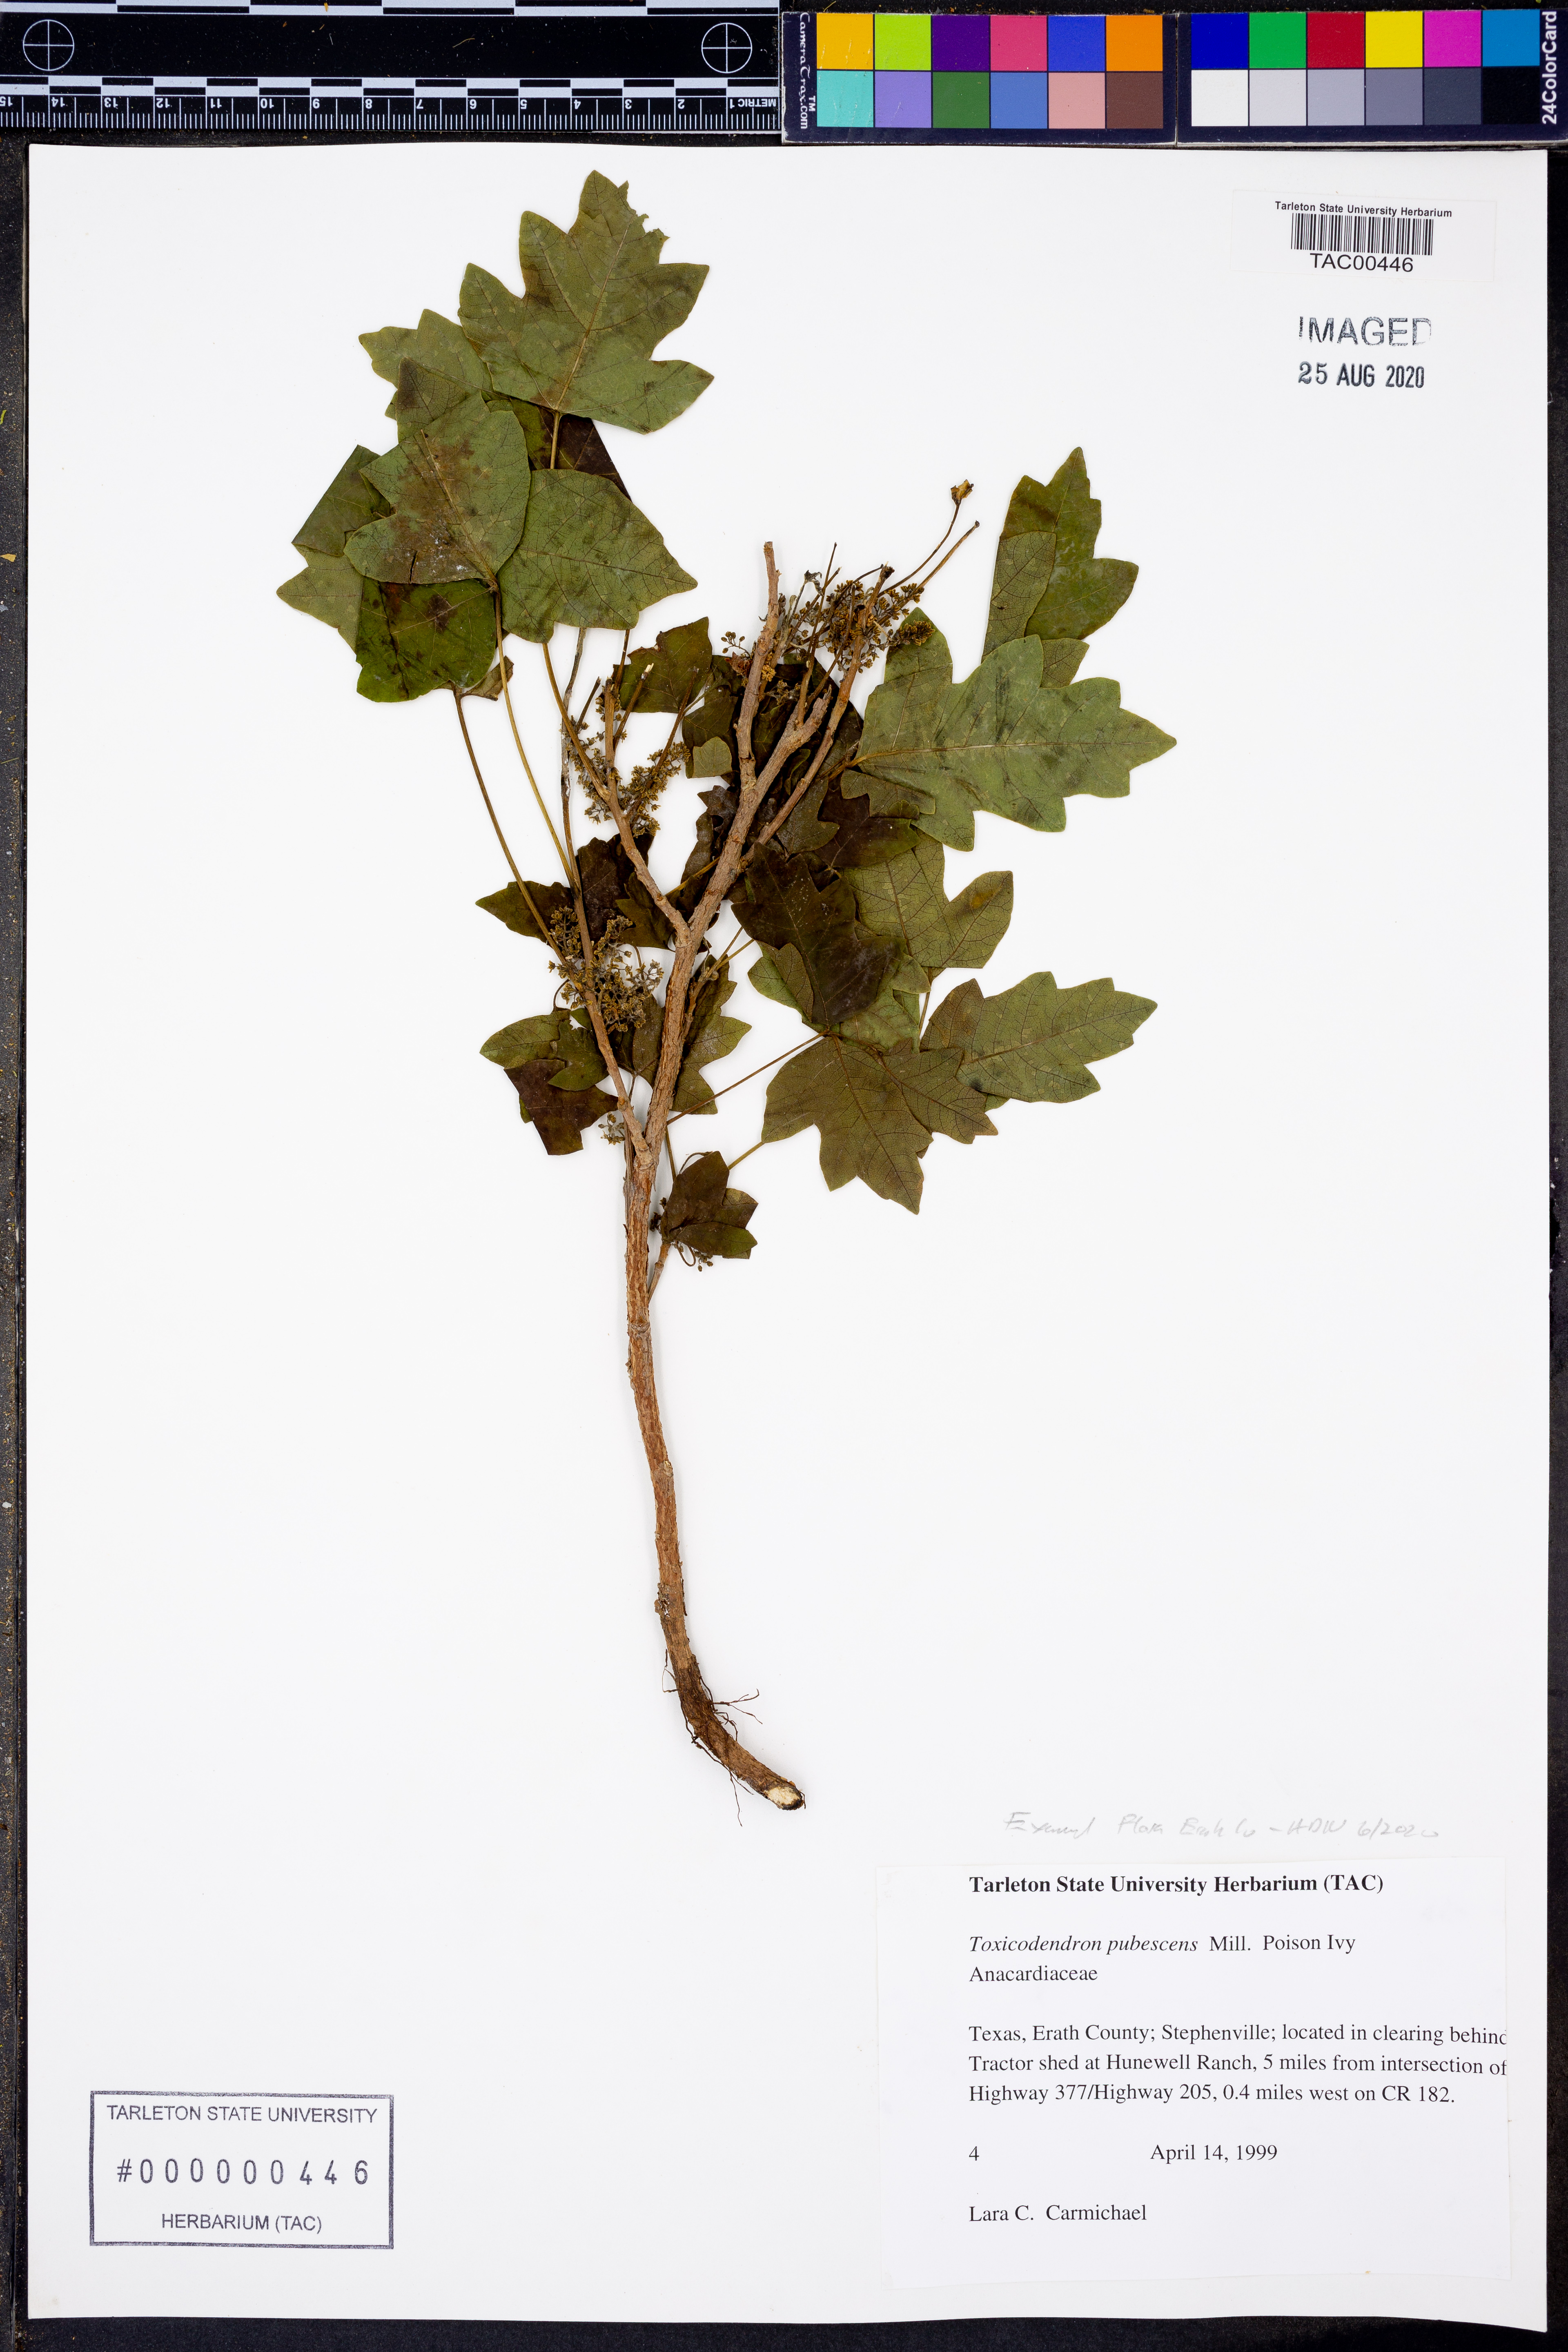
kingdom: Plantae
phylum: Tracheophyta
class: Magnoliopsida
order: Sapindales
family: Anacardiaceae
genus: Toxicodendron
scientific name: Toxicodendron pubescens
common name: Eastern poison-oak
